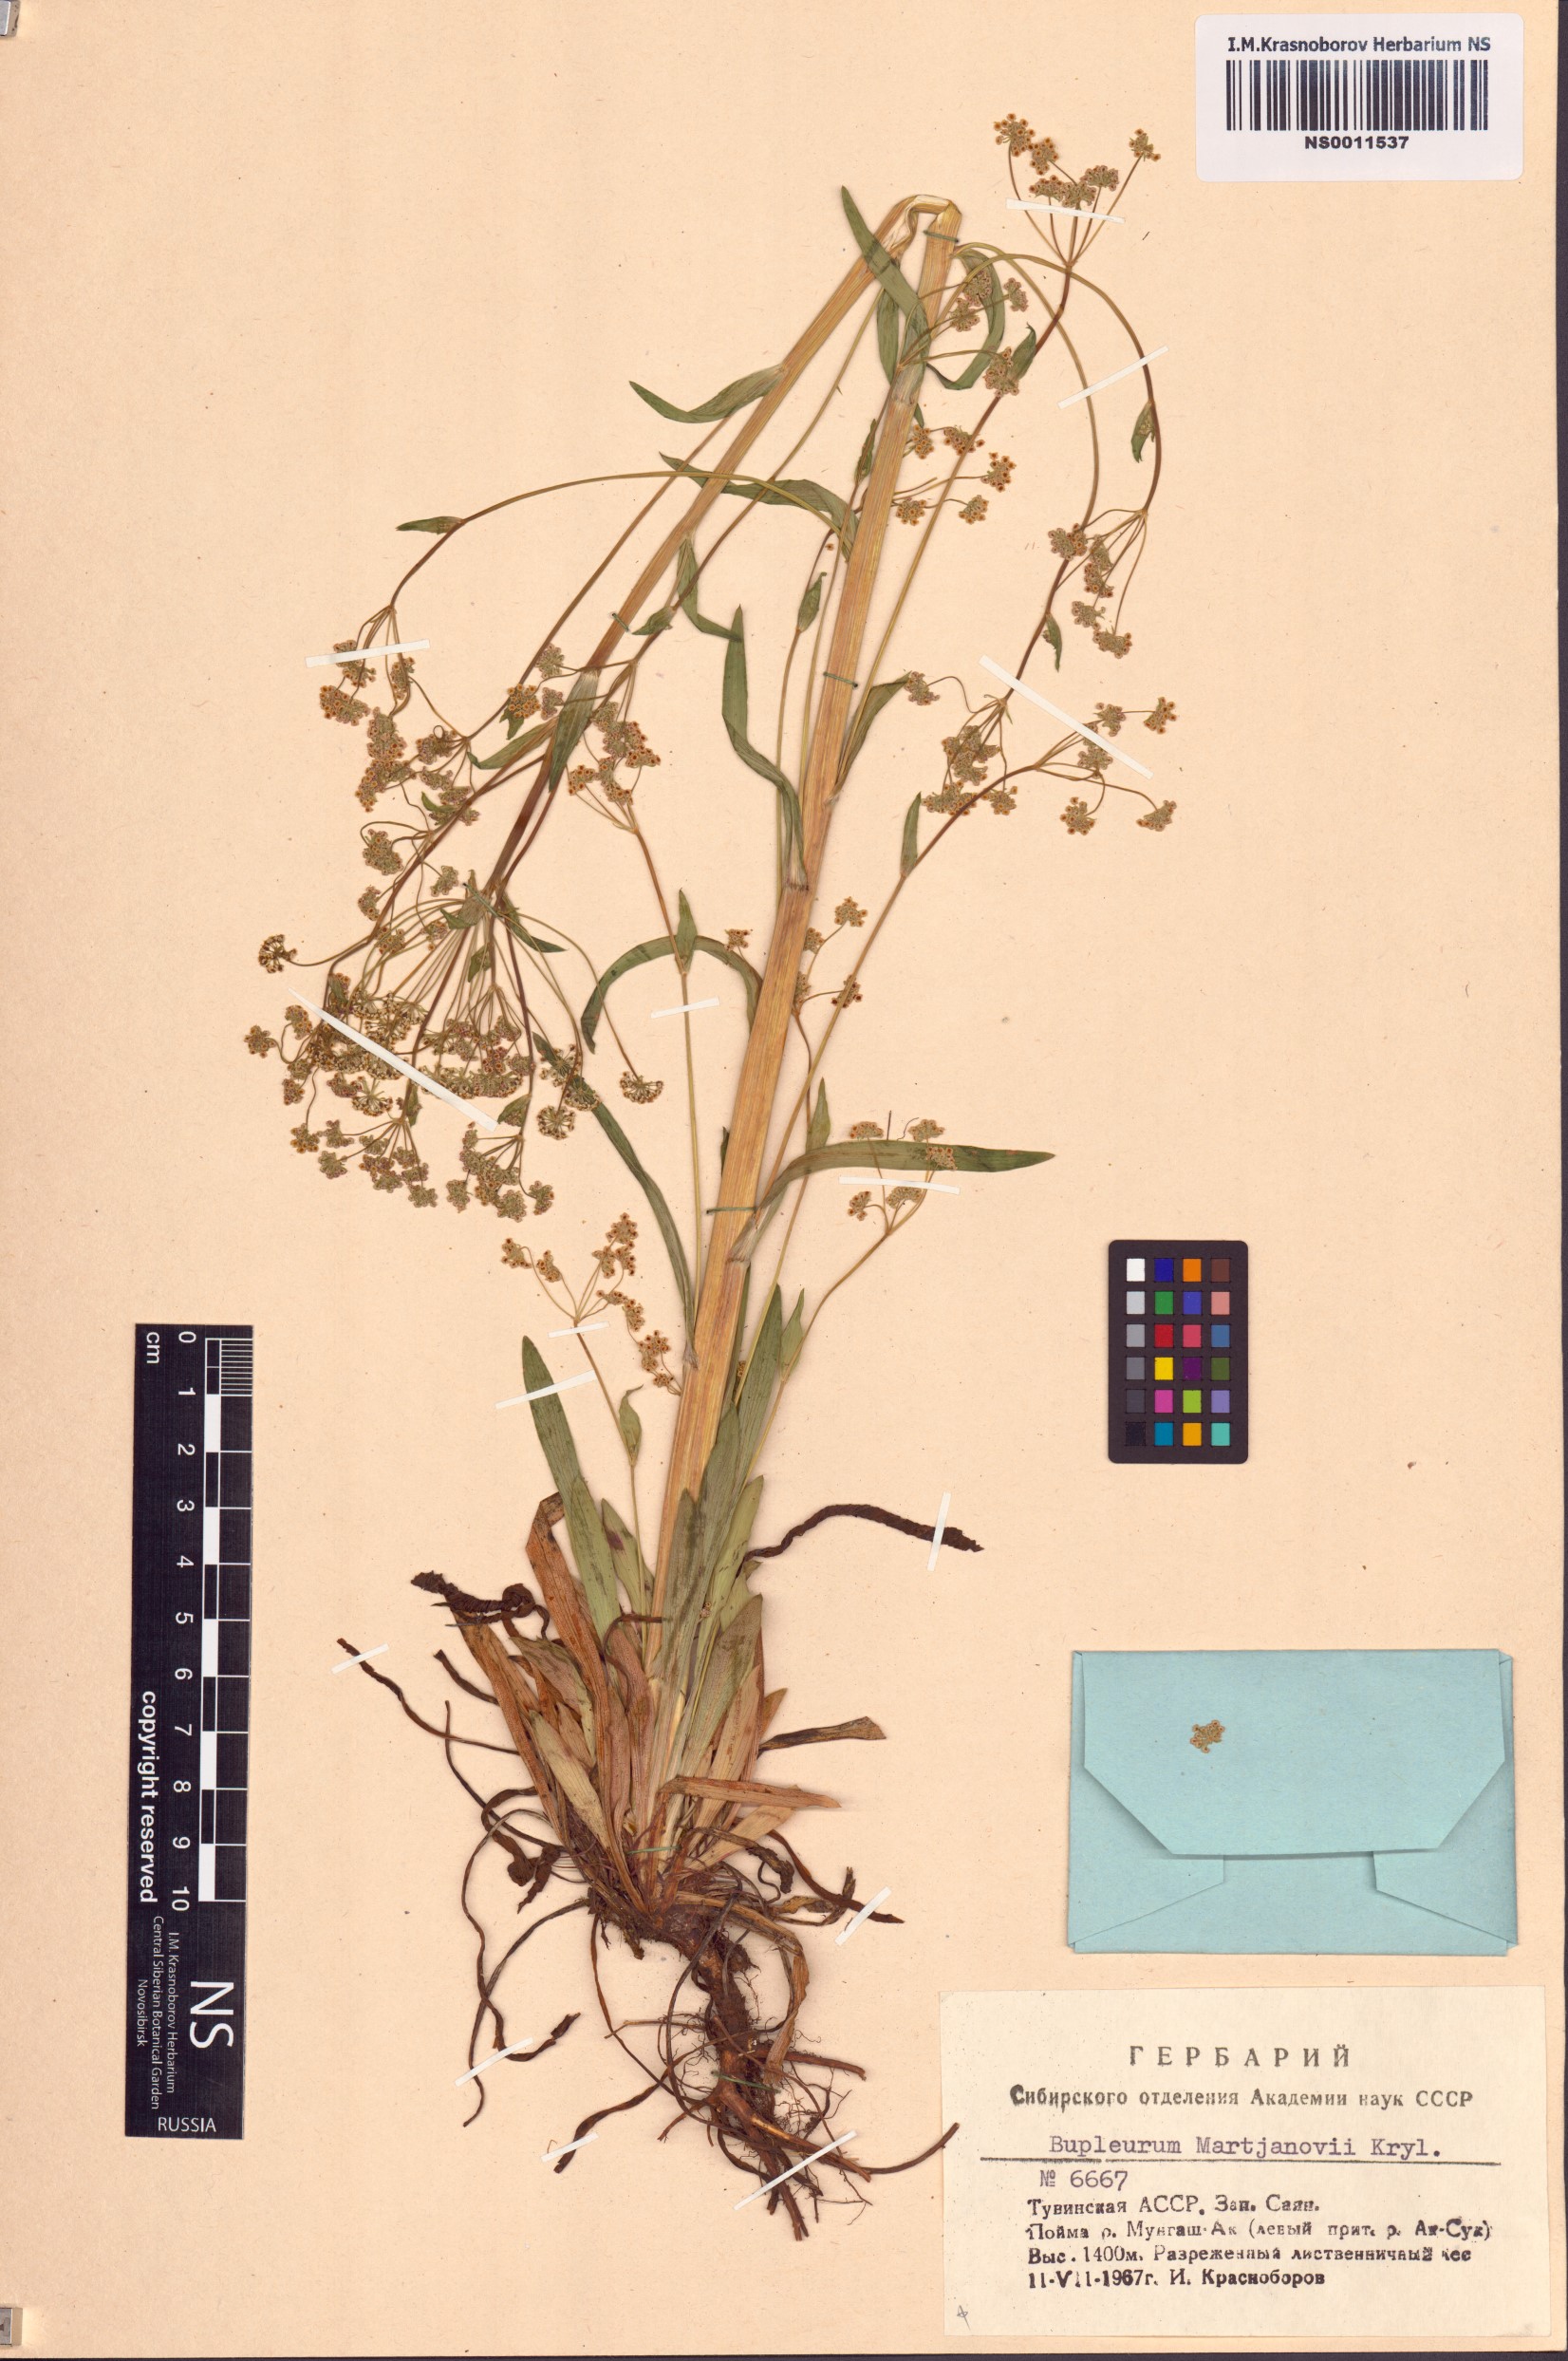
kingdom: Plantae
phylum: Tracheophyta
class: Magnoliopsida
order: Apiales
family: Apiaceae
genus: Bupleurum
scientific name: Bupleurum martjanovii
